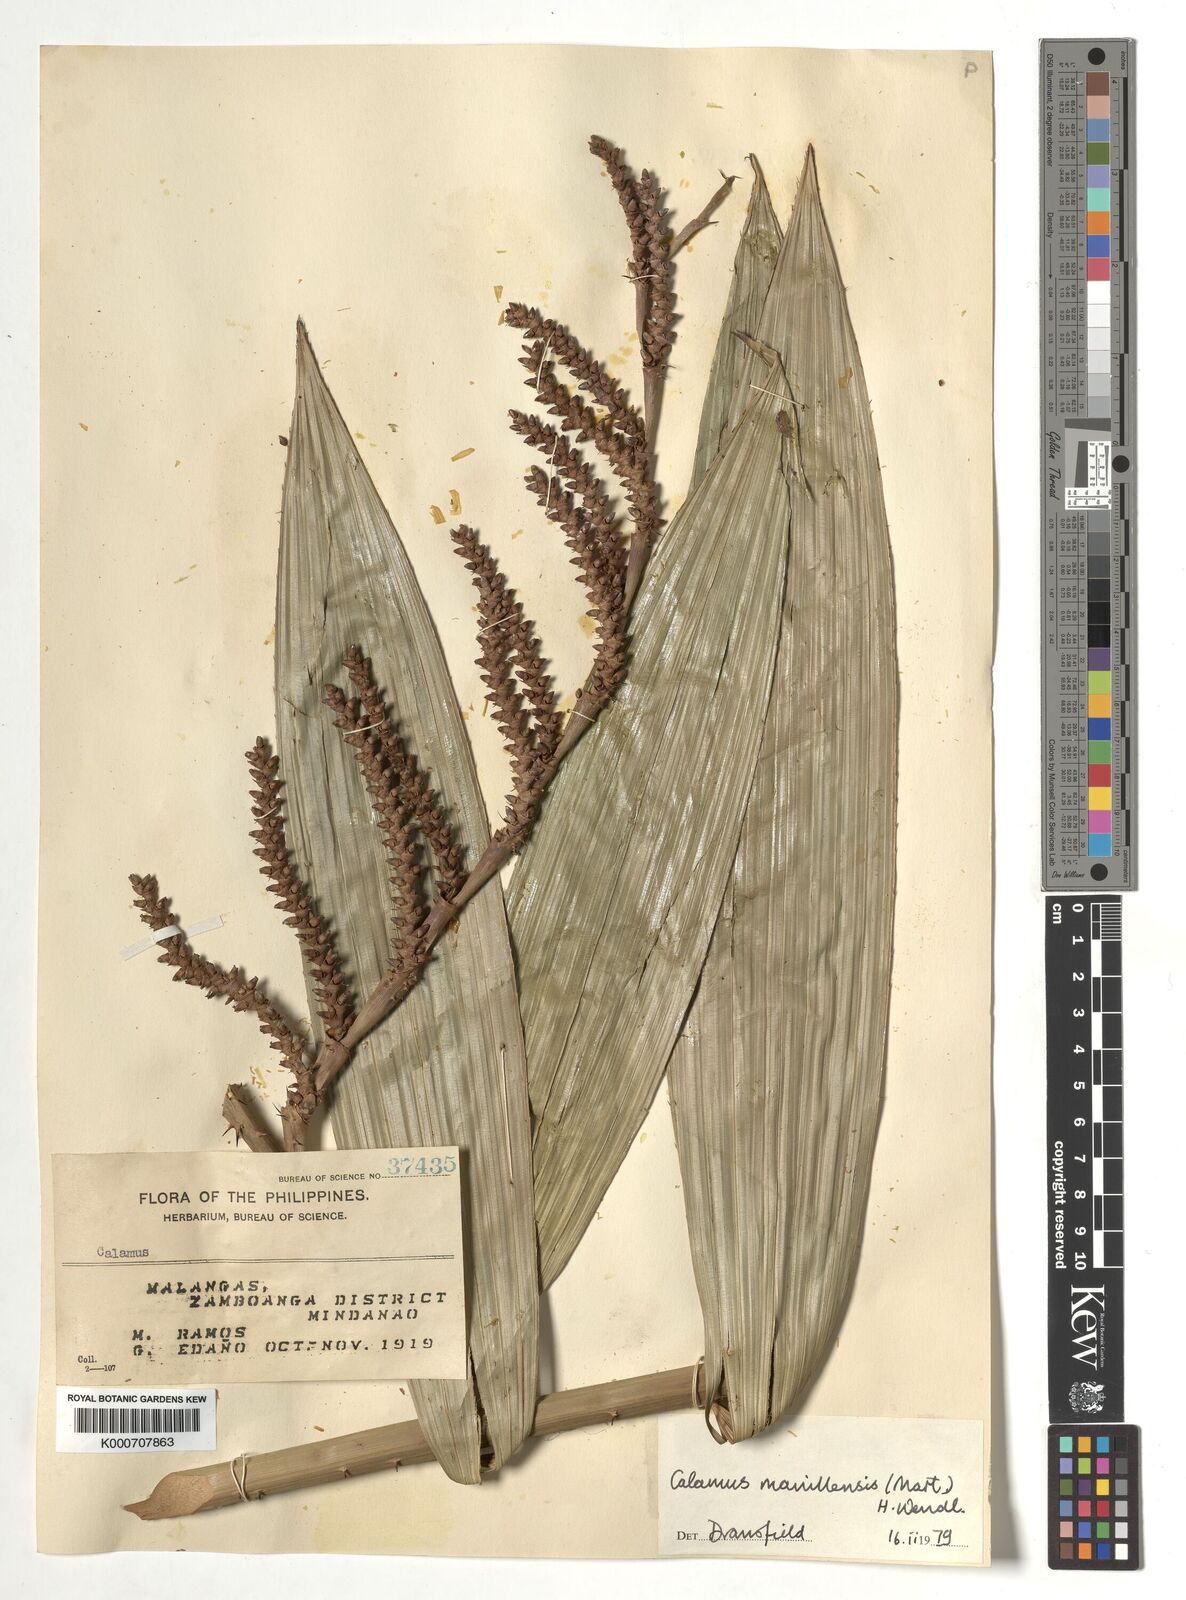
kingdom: Plantae
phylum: Tracheophyta
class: Liliopsida
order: Arecales
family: Arecaceae
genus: Calamus
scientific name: Calamus manillensis
